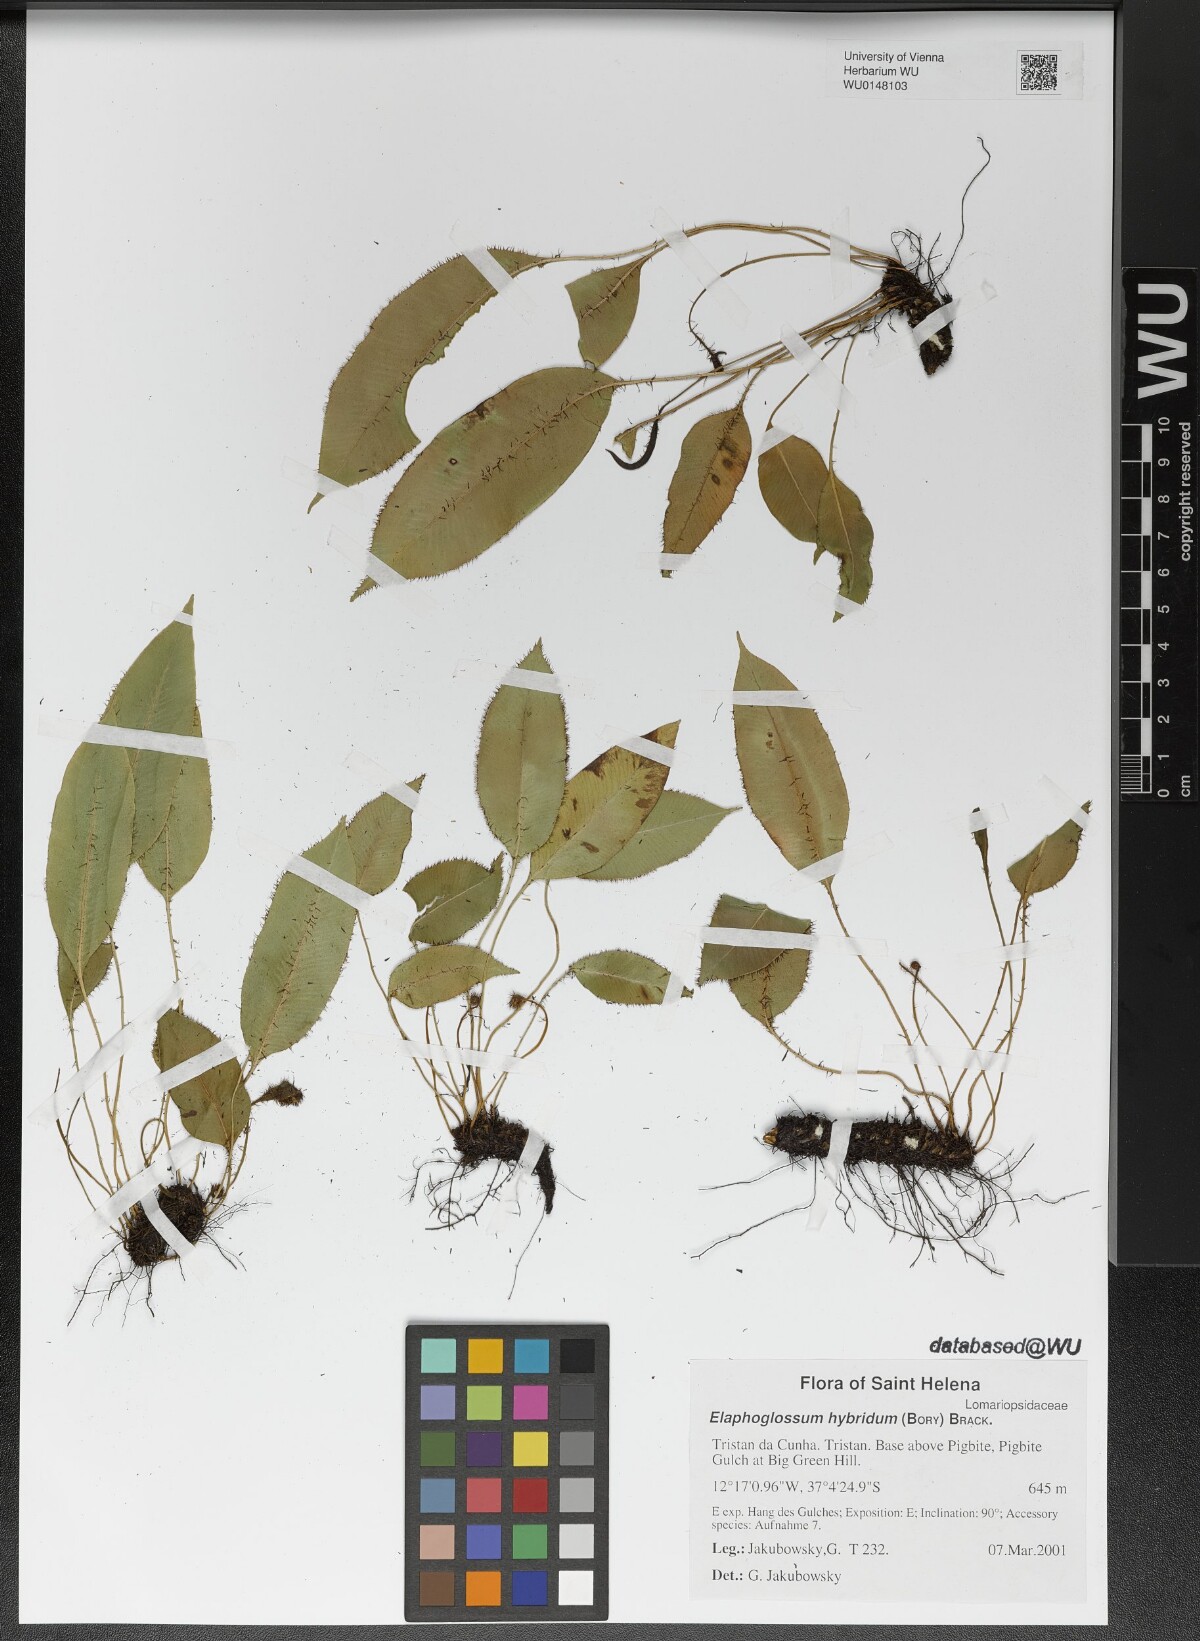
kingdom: Plantae
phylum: Tracheophyta
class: Polypodiopsida
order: Polypodiales
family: Dryopteridaceae
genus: Elaphoglossum
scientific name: Elaphoglossum hybridum
